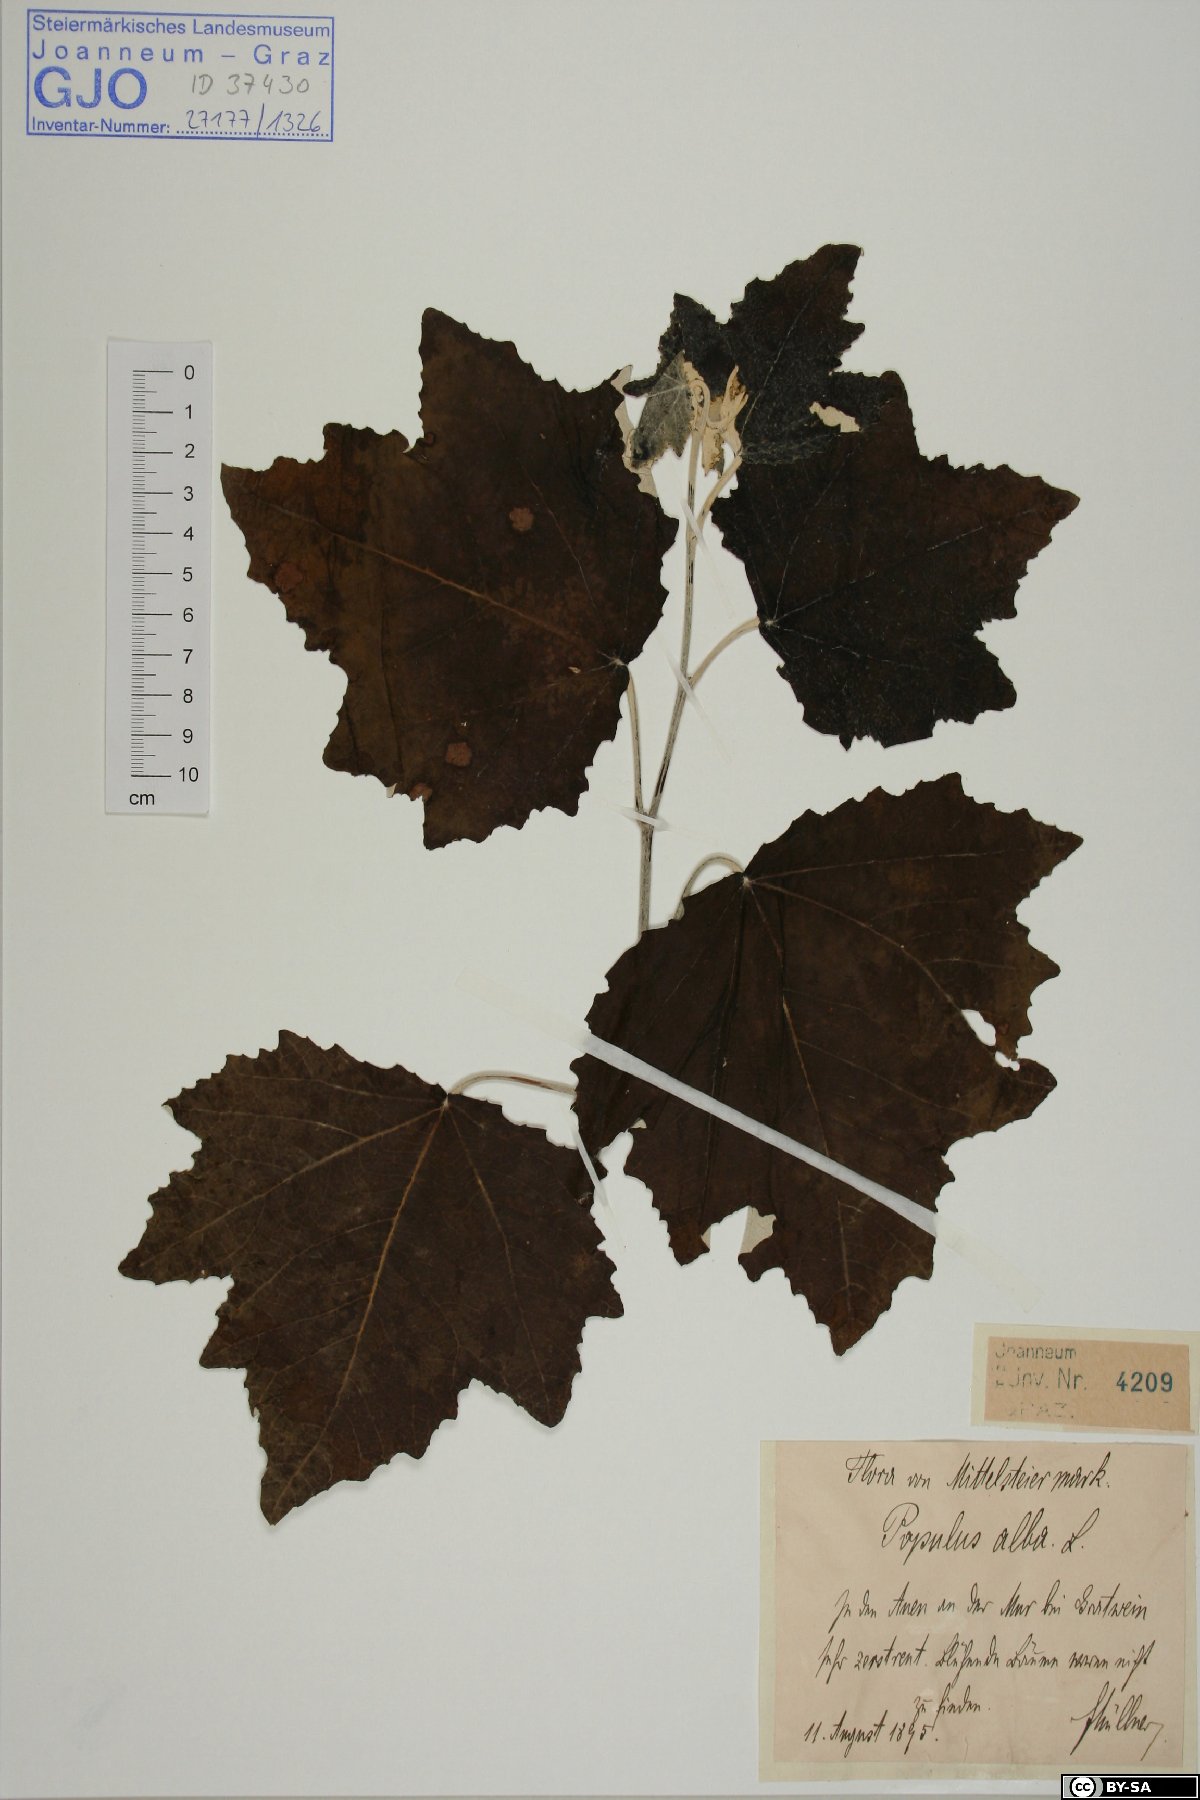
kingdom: Plantae
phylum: Tracheophyta
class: Magnoliopsida
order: Malpighiales
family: Salicaceae
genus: Populus
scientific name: Populus alba
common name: White poplar
